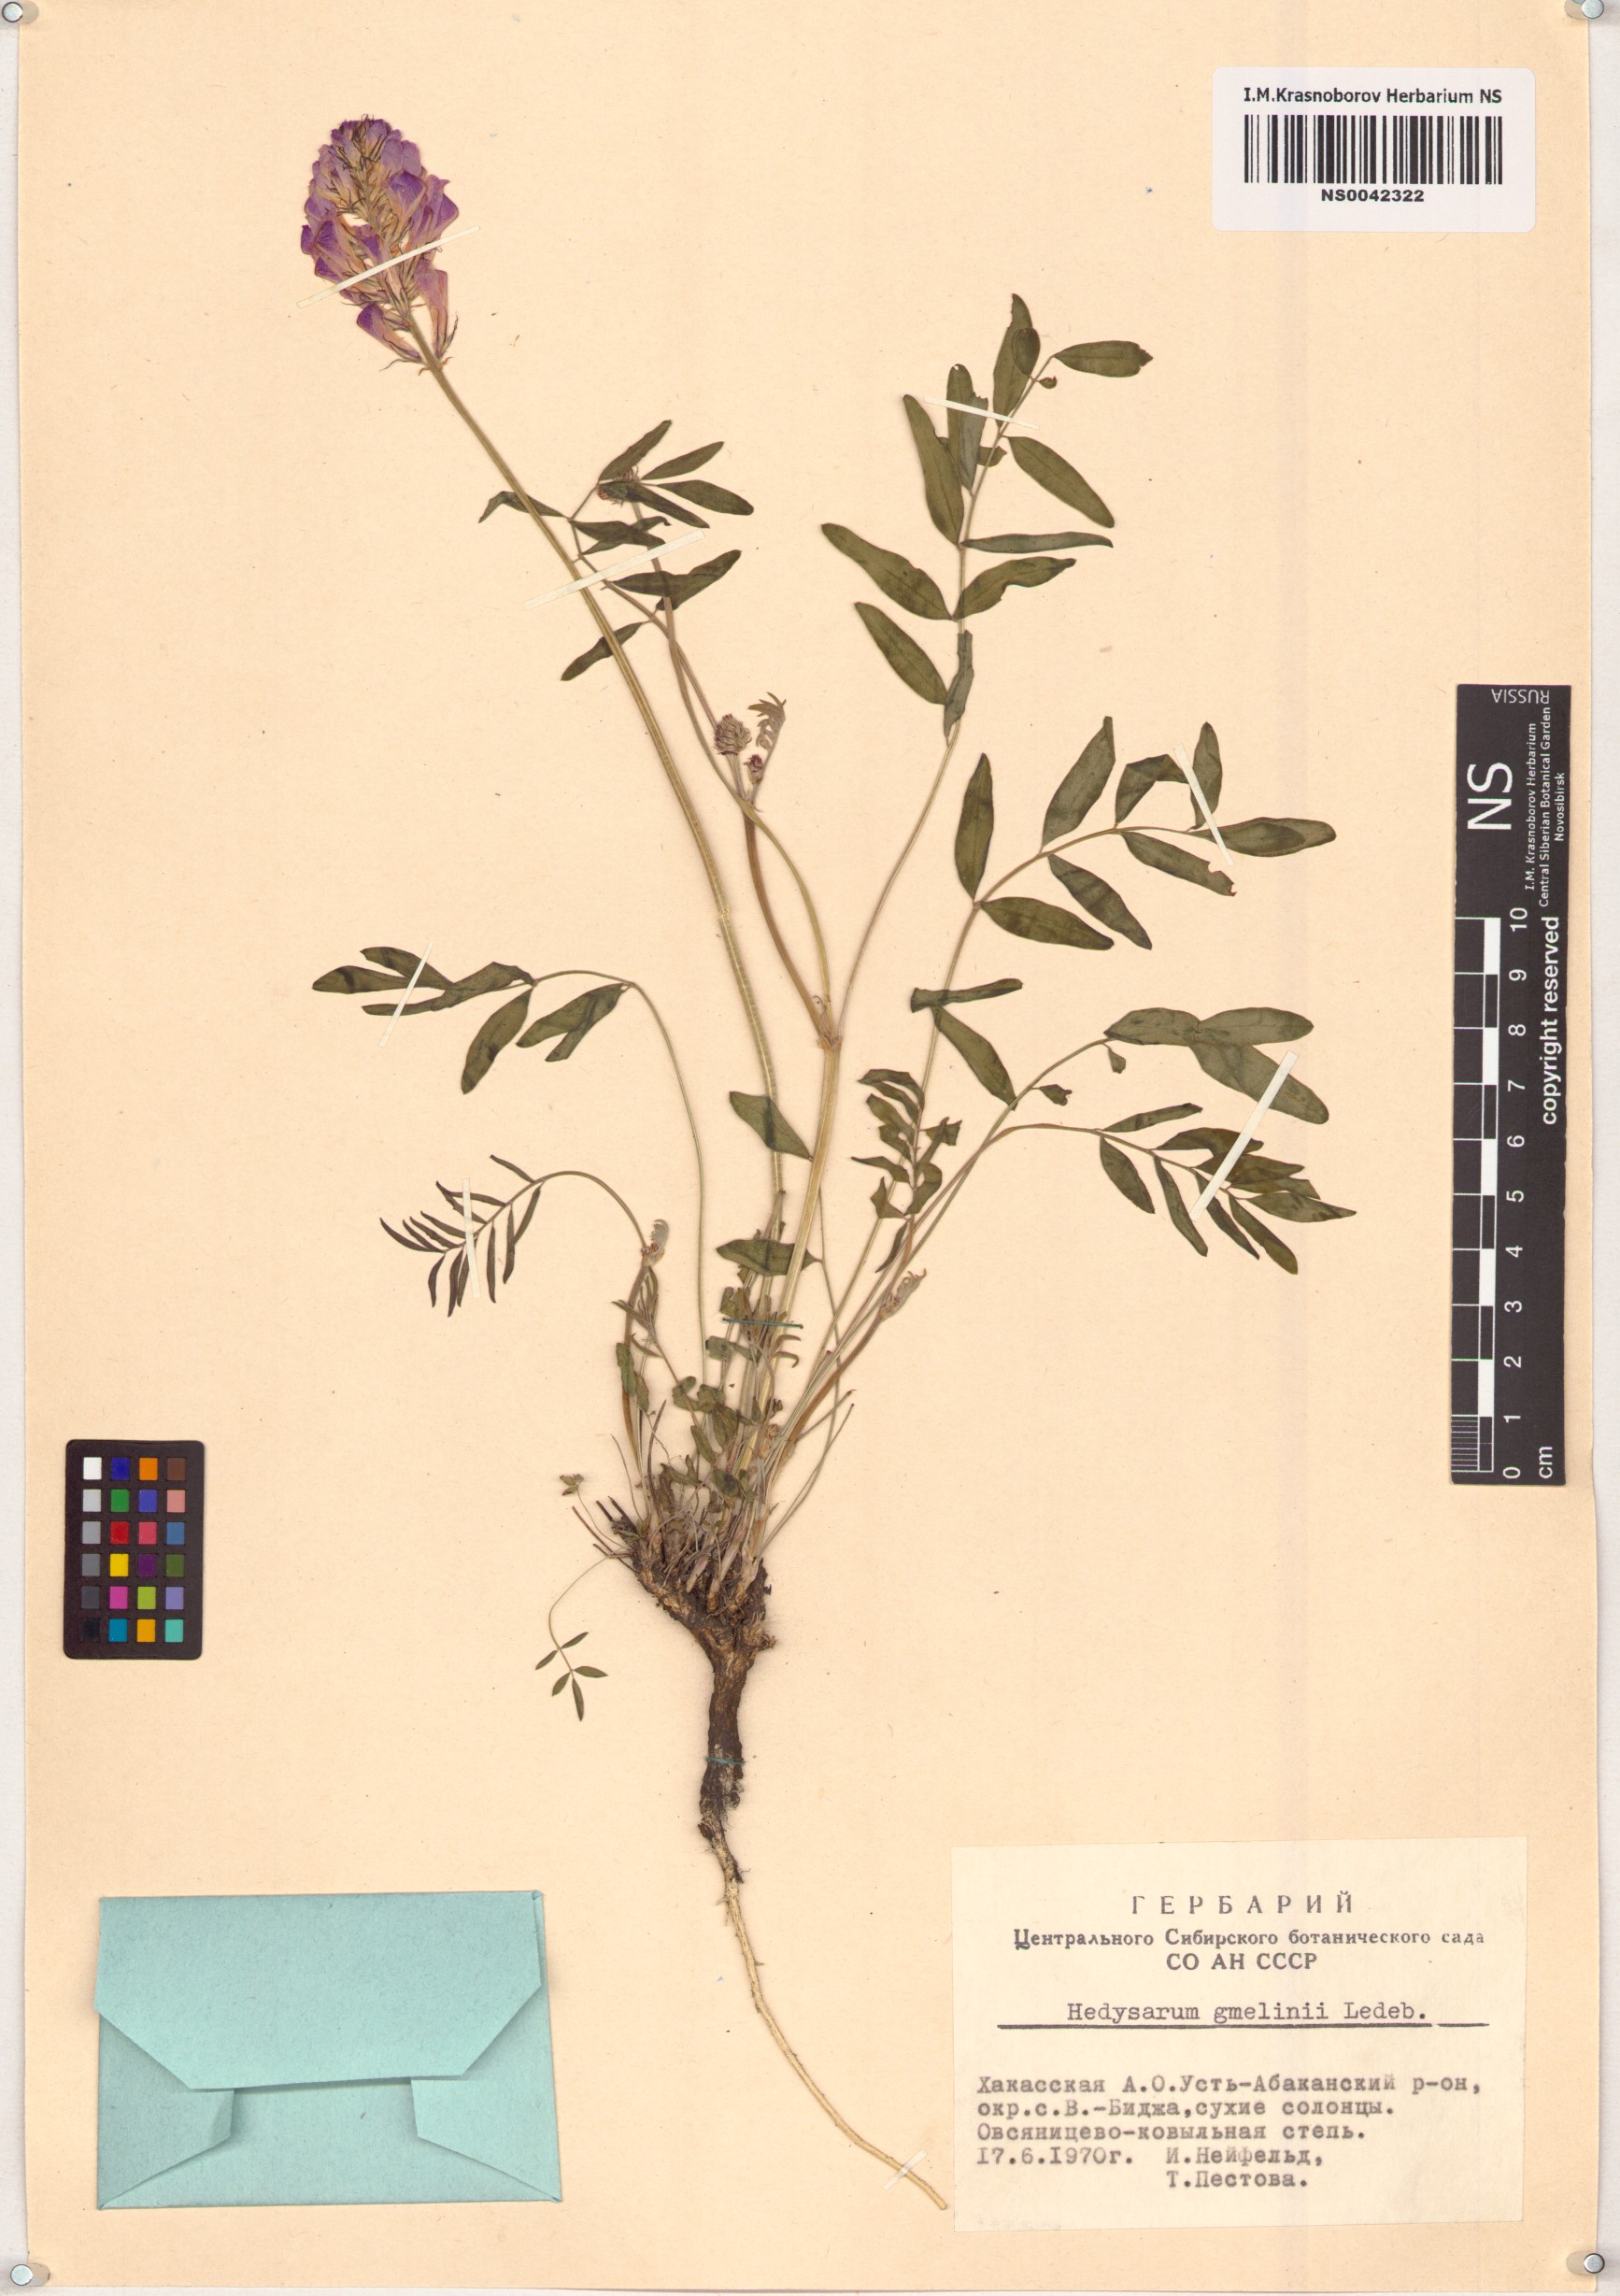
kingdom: Plantae
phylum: Tracheophyta
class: Magnoliopsida
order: Fabales
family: Fabaceae
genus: Hedysarum
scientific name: Hedysarum gmelinii
